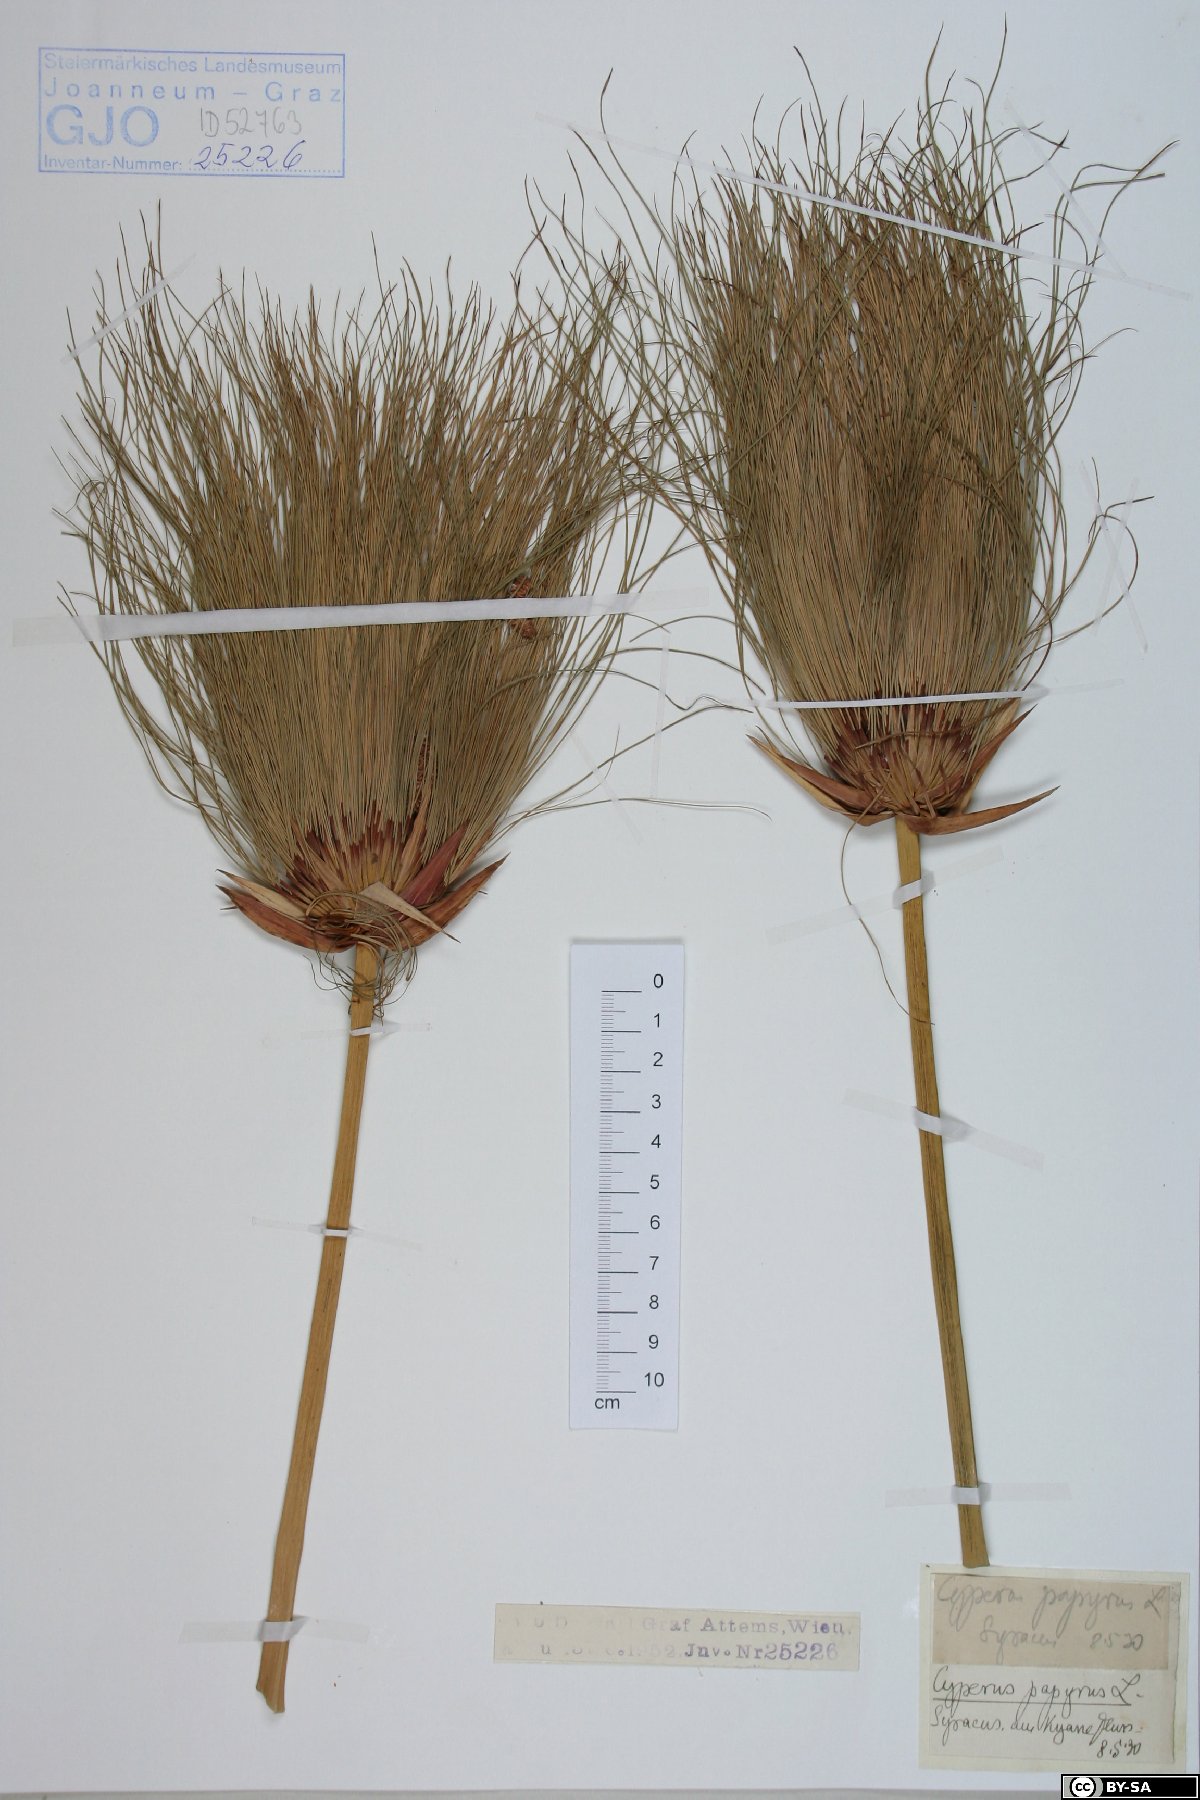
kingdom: Plantae
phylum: Tracheophyta
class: Liliopsida
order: Poales
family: Cyperaceae
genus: Cyperus
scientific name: Cyperus papyrus
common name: Papyrus
